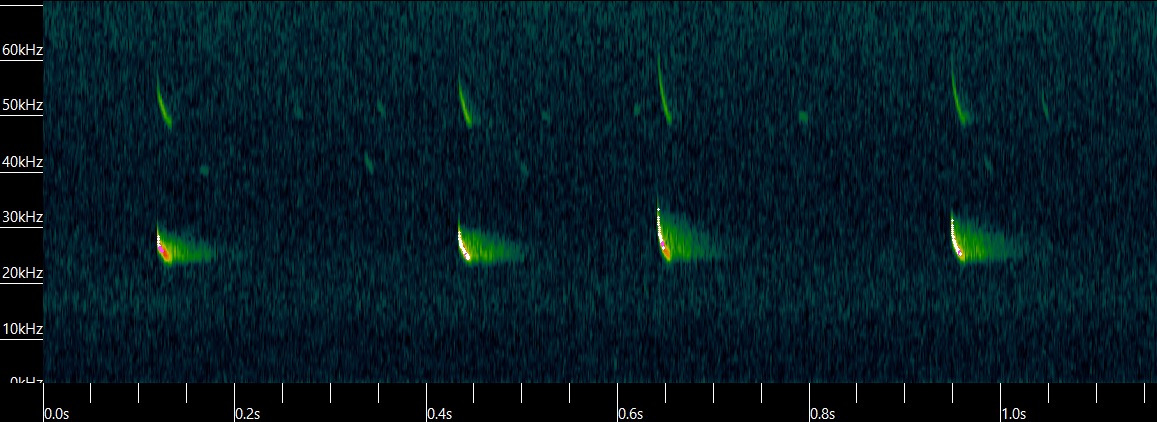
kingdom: Animalia
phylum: Chordata
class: Mammalia
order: Chiroptera
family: Vespertilionidae
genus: Vespertilio
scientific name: Vespertilio murinus
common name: Skimmelflagermus
